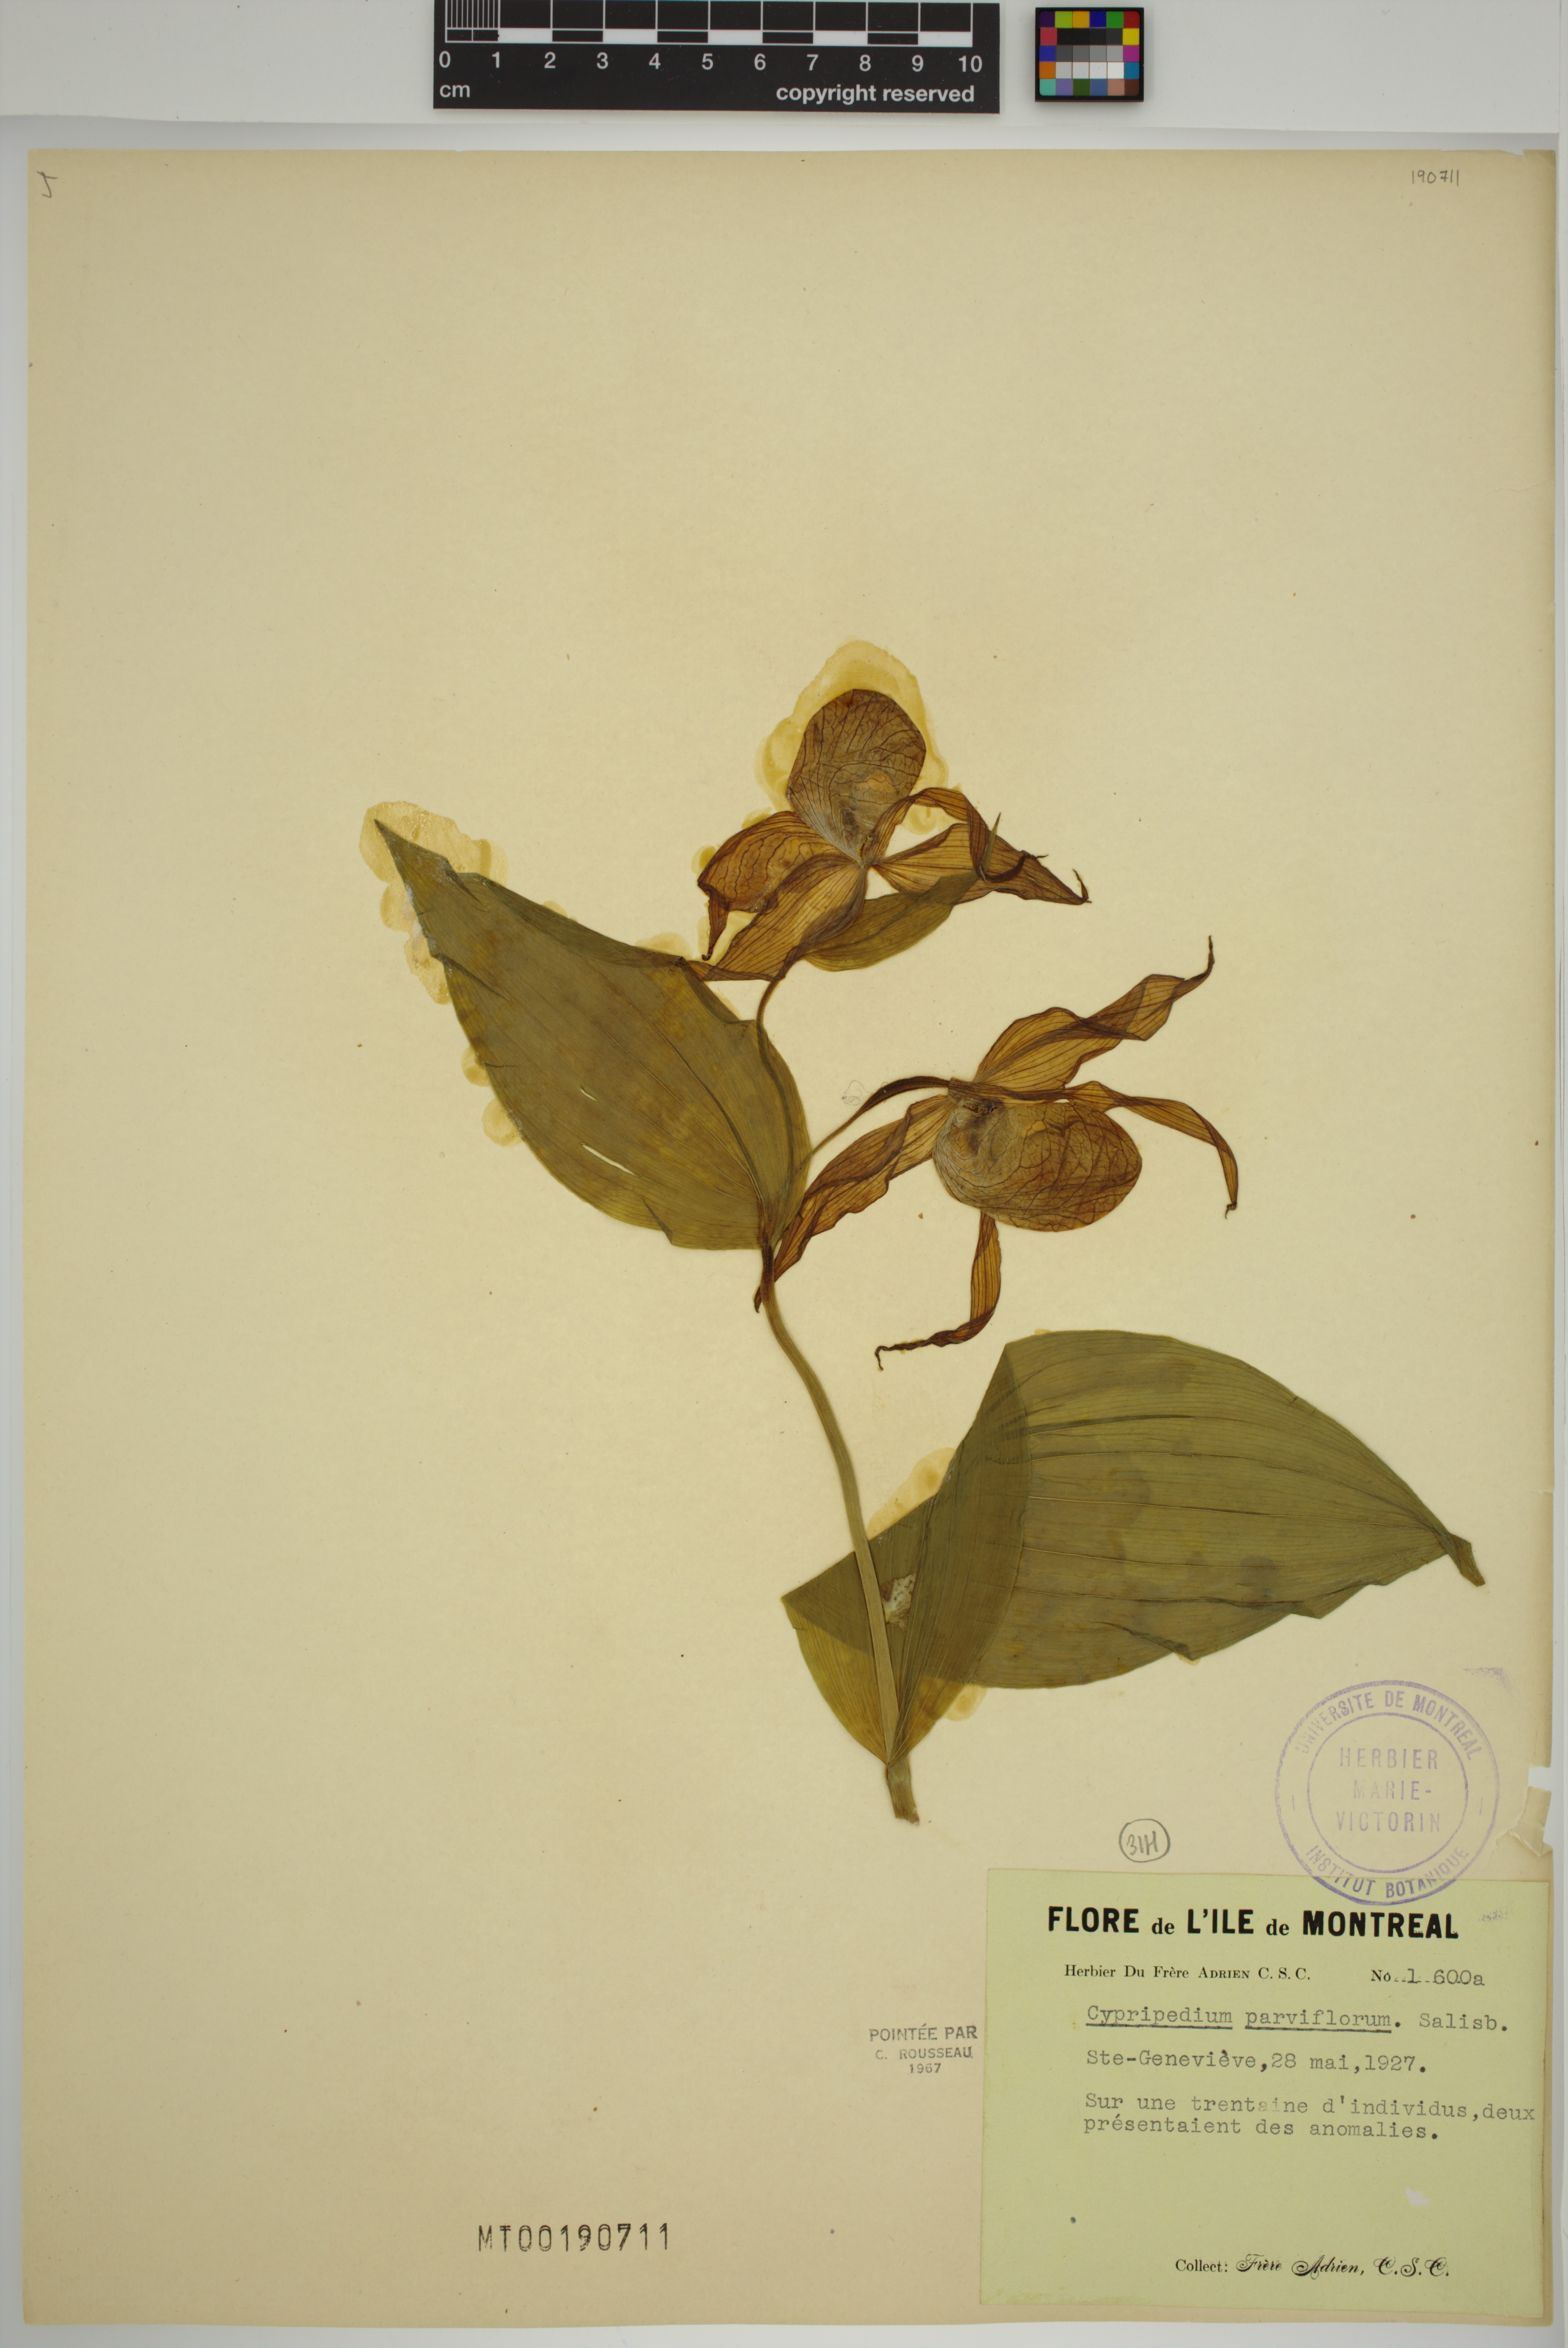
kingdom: Plantae
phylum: Tracheophyta
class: Liliopsida
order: Asparagales
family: Orchidaceae
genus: Cypripedium
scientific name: Cypripedium parviflorum
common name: American yellow lady's-slipper
